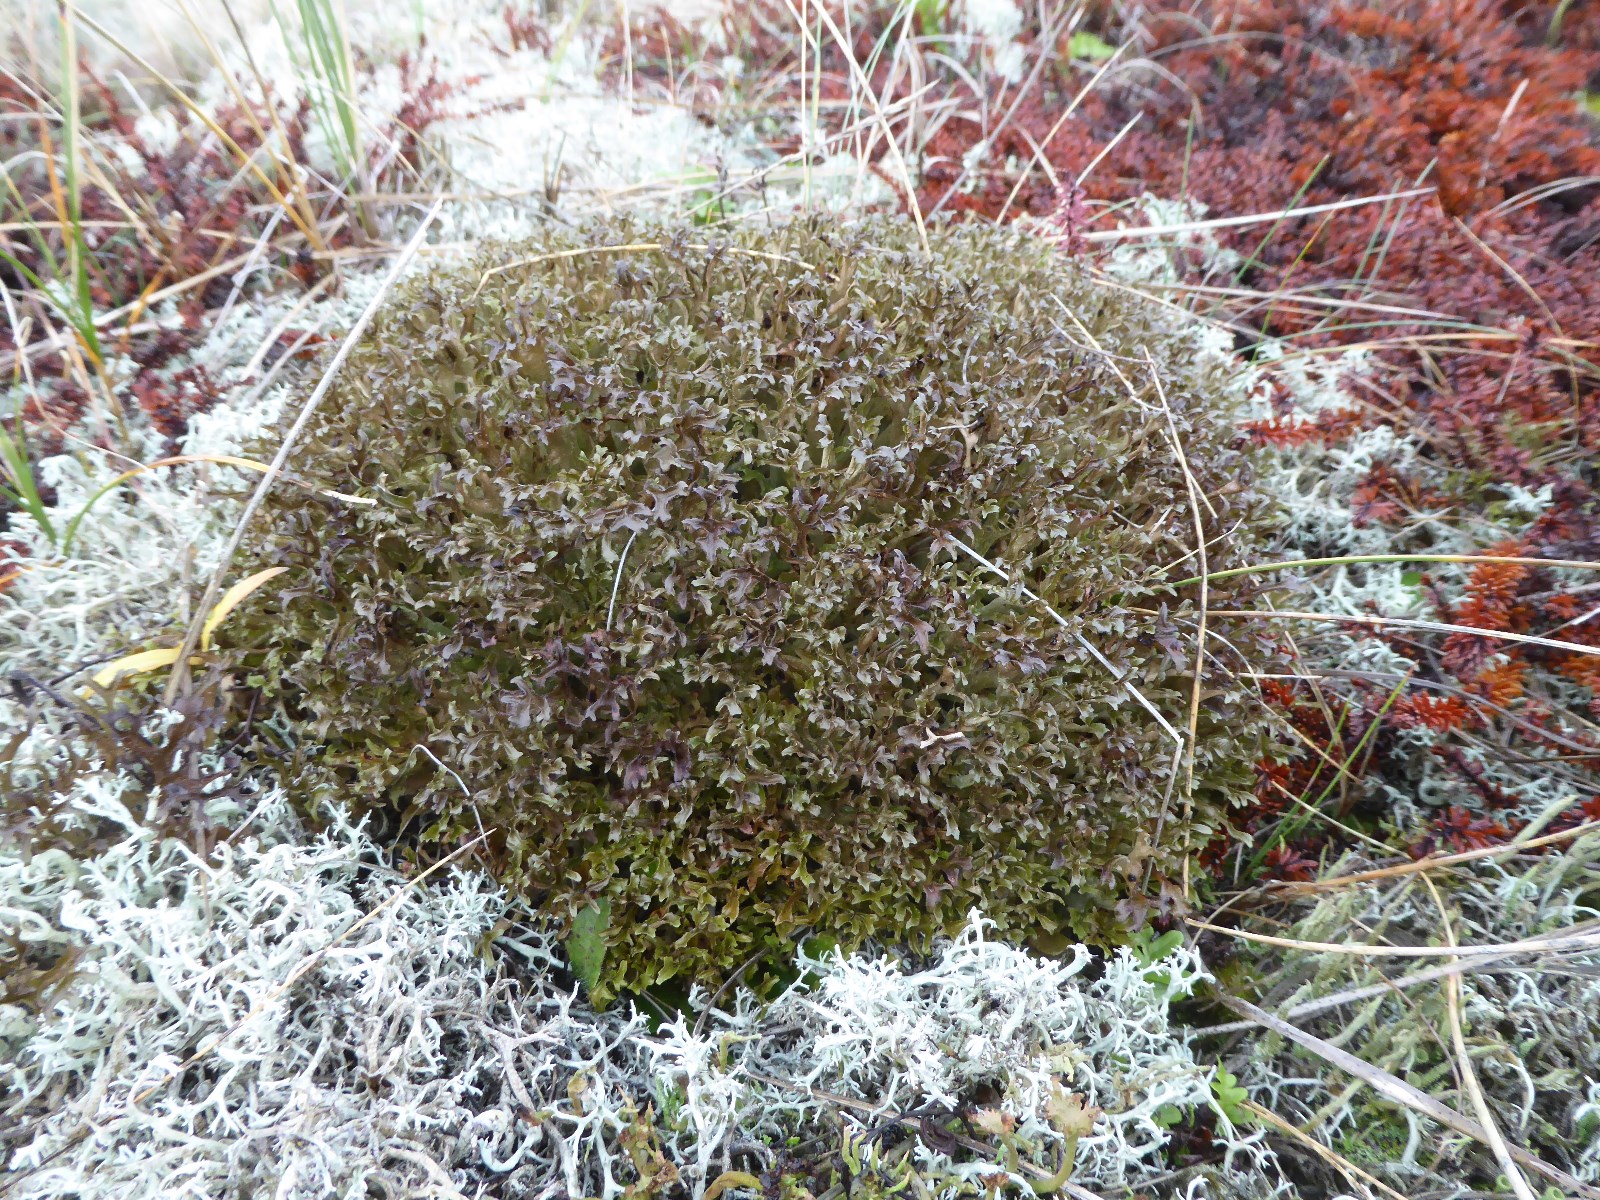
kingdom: Fungi
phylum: Ascomycota
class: Lecanoromycetes
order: Lecanorales
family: Parmeliaceae
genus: Cetraria
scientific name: Cetraria islandica
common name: islandsk kruslav
